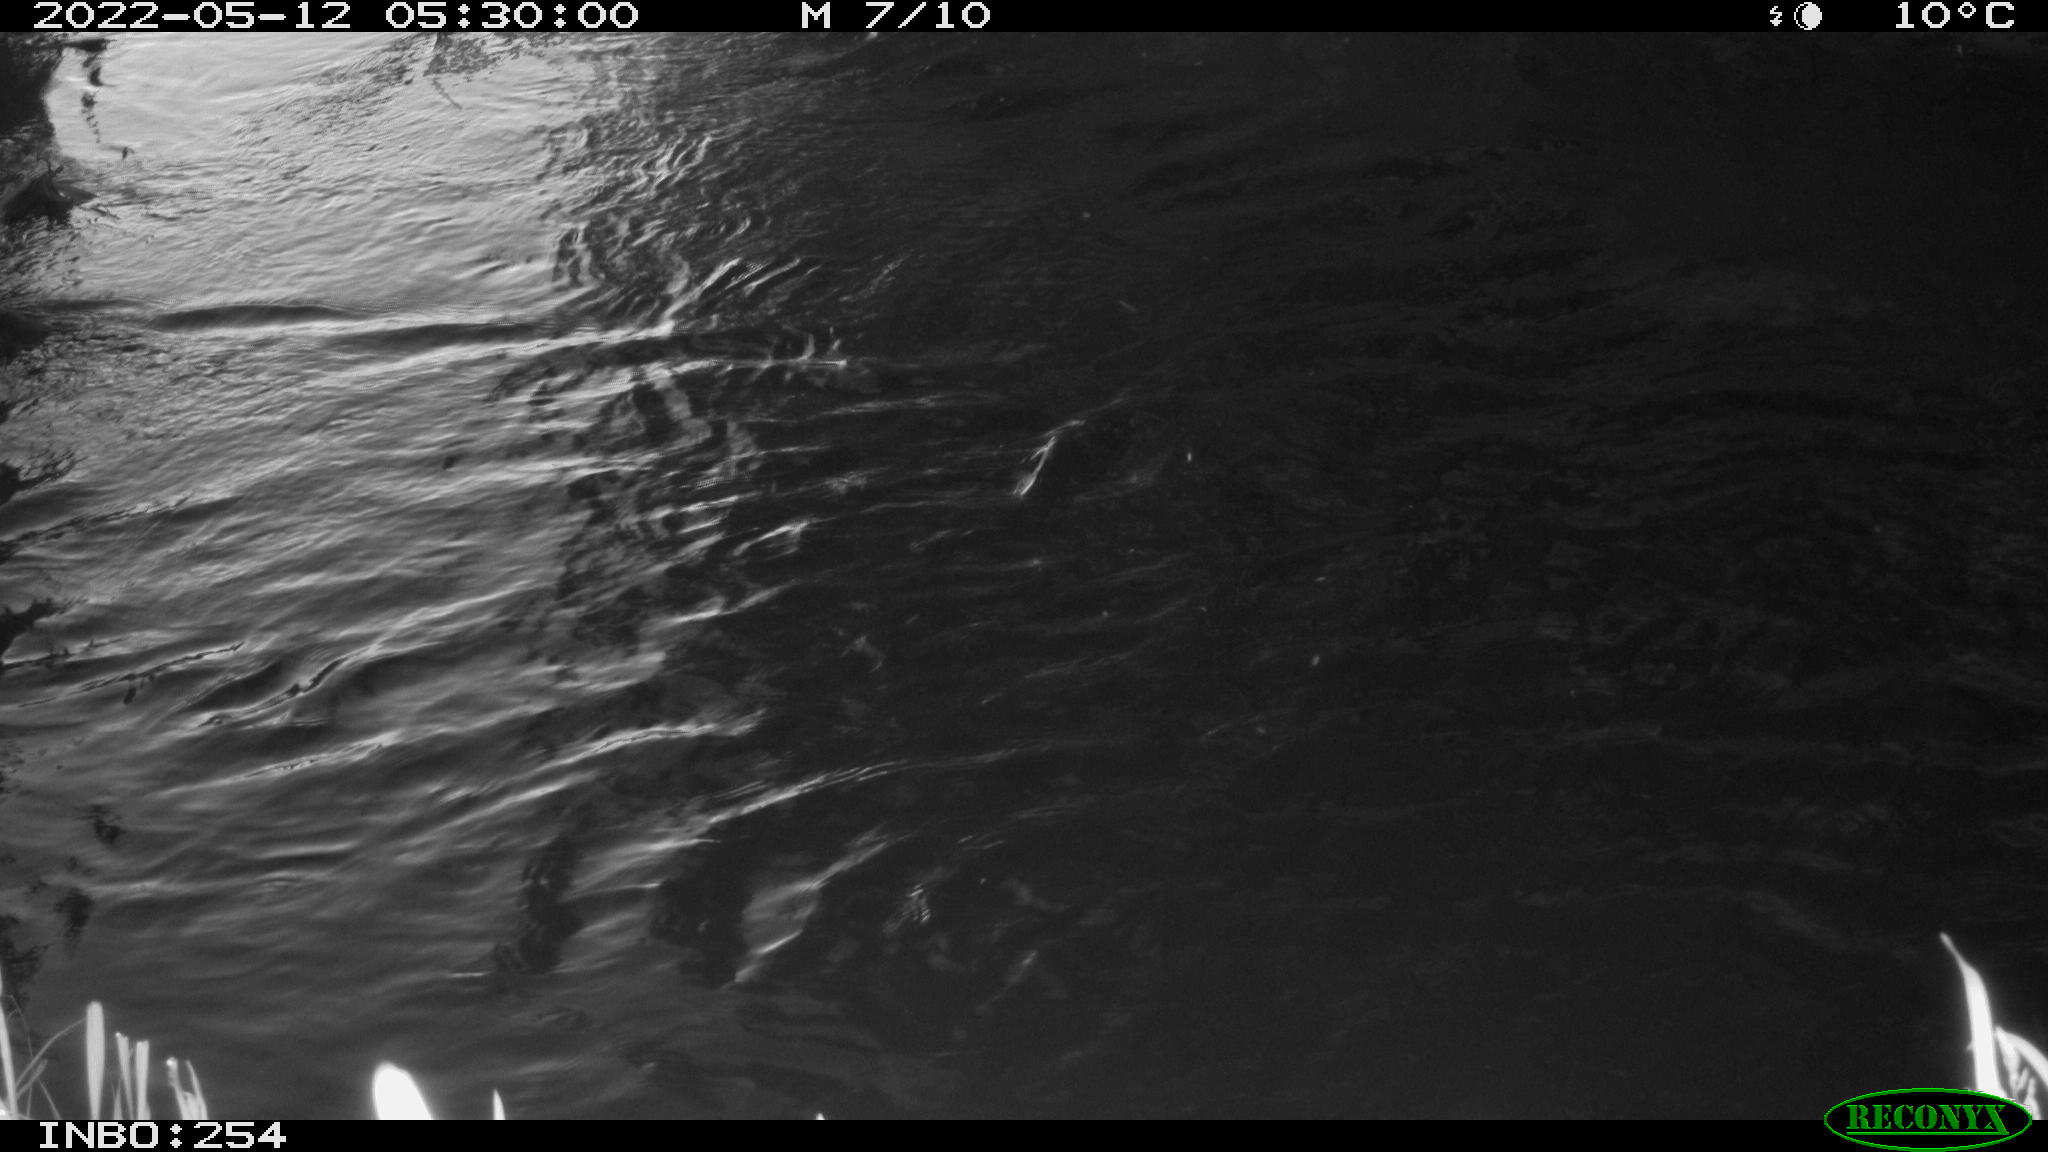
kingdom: Animalia
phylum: Chordata
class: Aves
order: Anseriformes
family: Anatidae
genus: Anas
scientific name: Anas platyrhynchos
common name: Mallard
